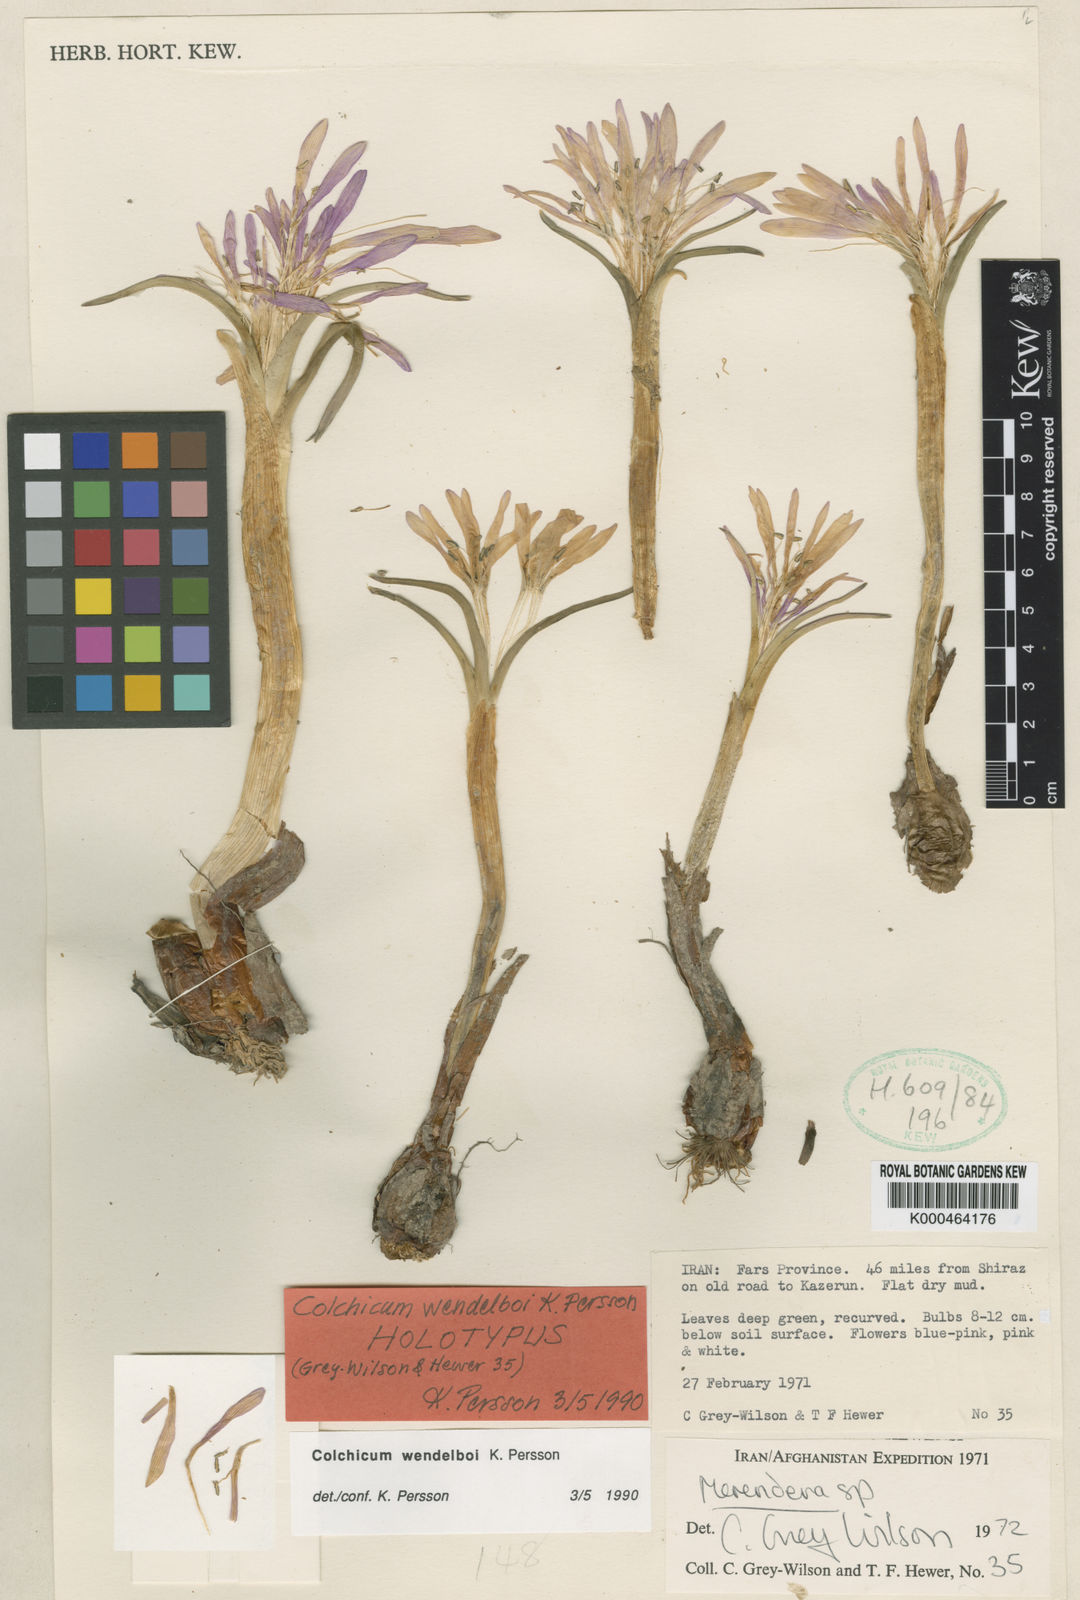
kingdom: Plantae
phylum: Tracheophyta
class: Liliopsida
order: Liliales
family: Colchicaceae
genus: Colchicum
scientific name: Colchicum wendelboi
